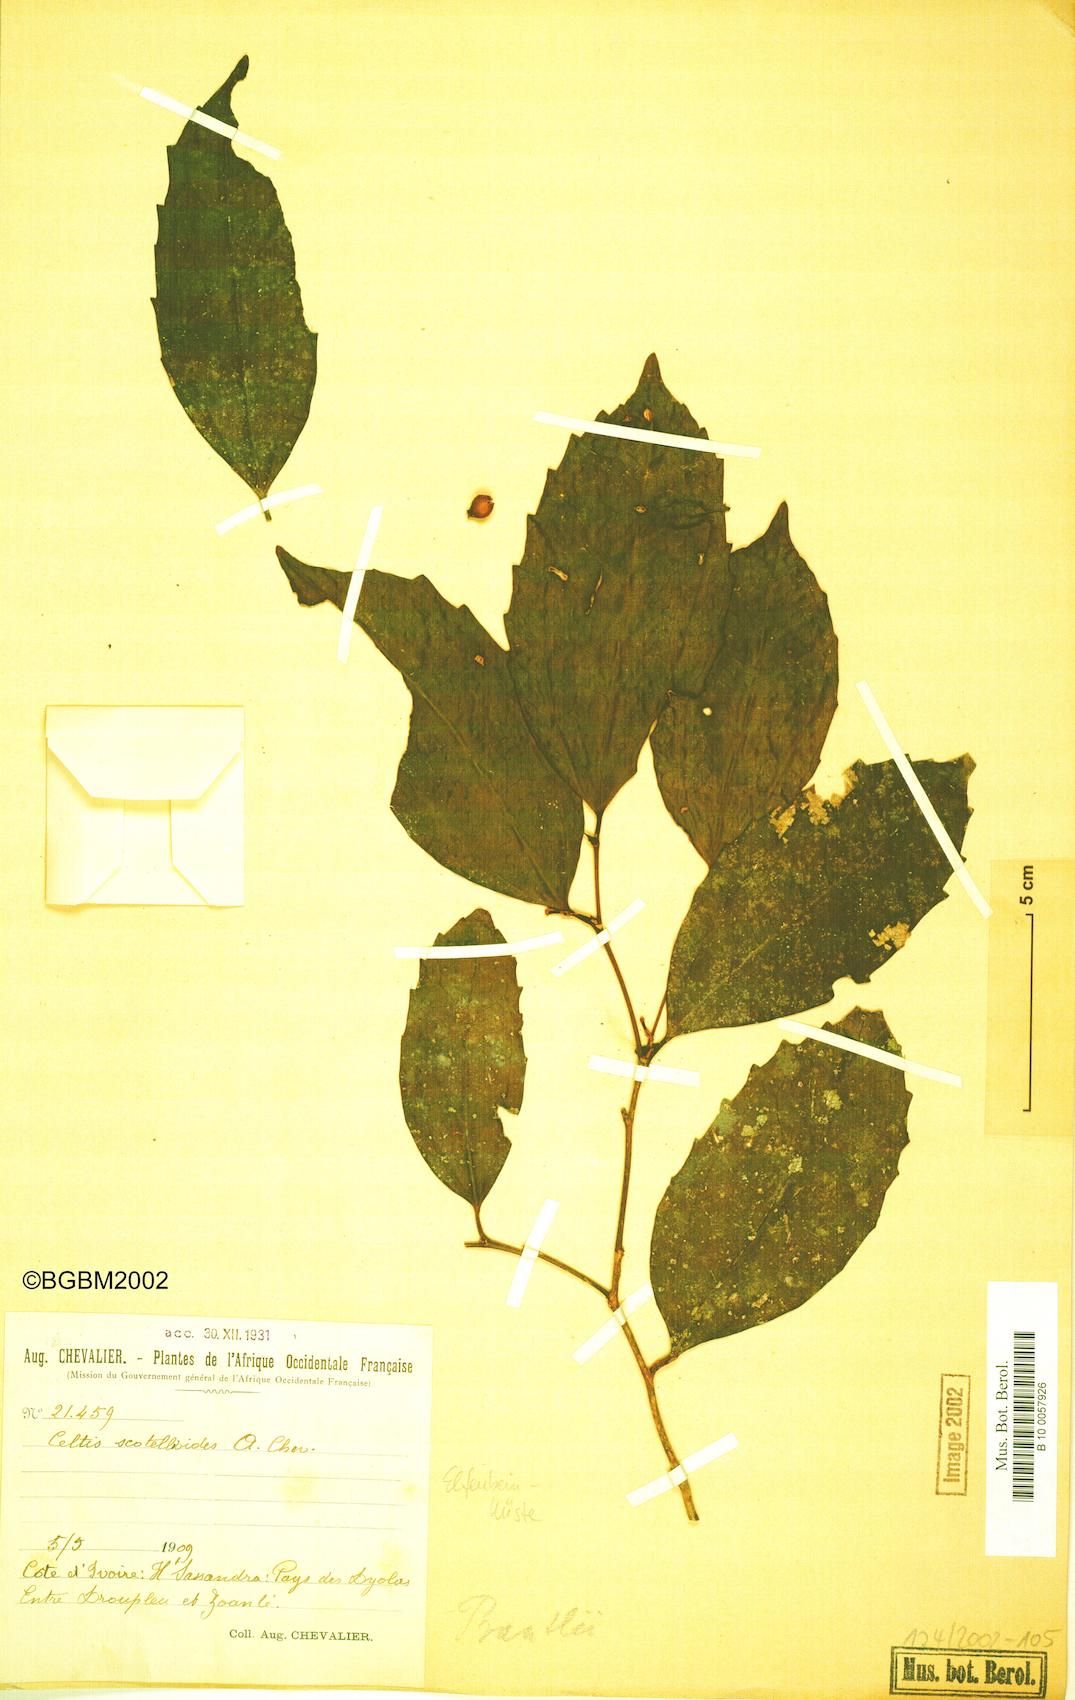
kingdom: Plantae
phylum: Tracheophyta
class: Magnoliopsida
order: Rosales
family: Cannabaceae
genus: Celtis
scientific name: Celtis
